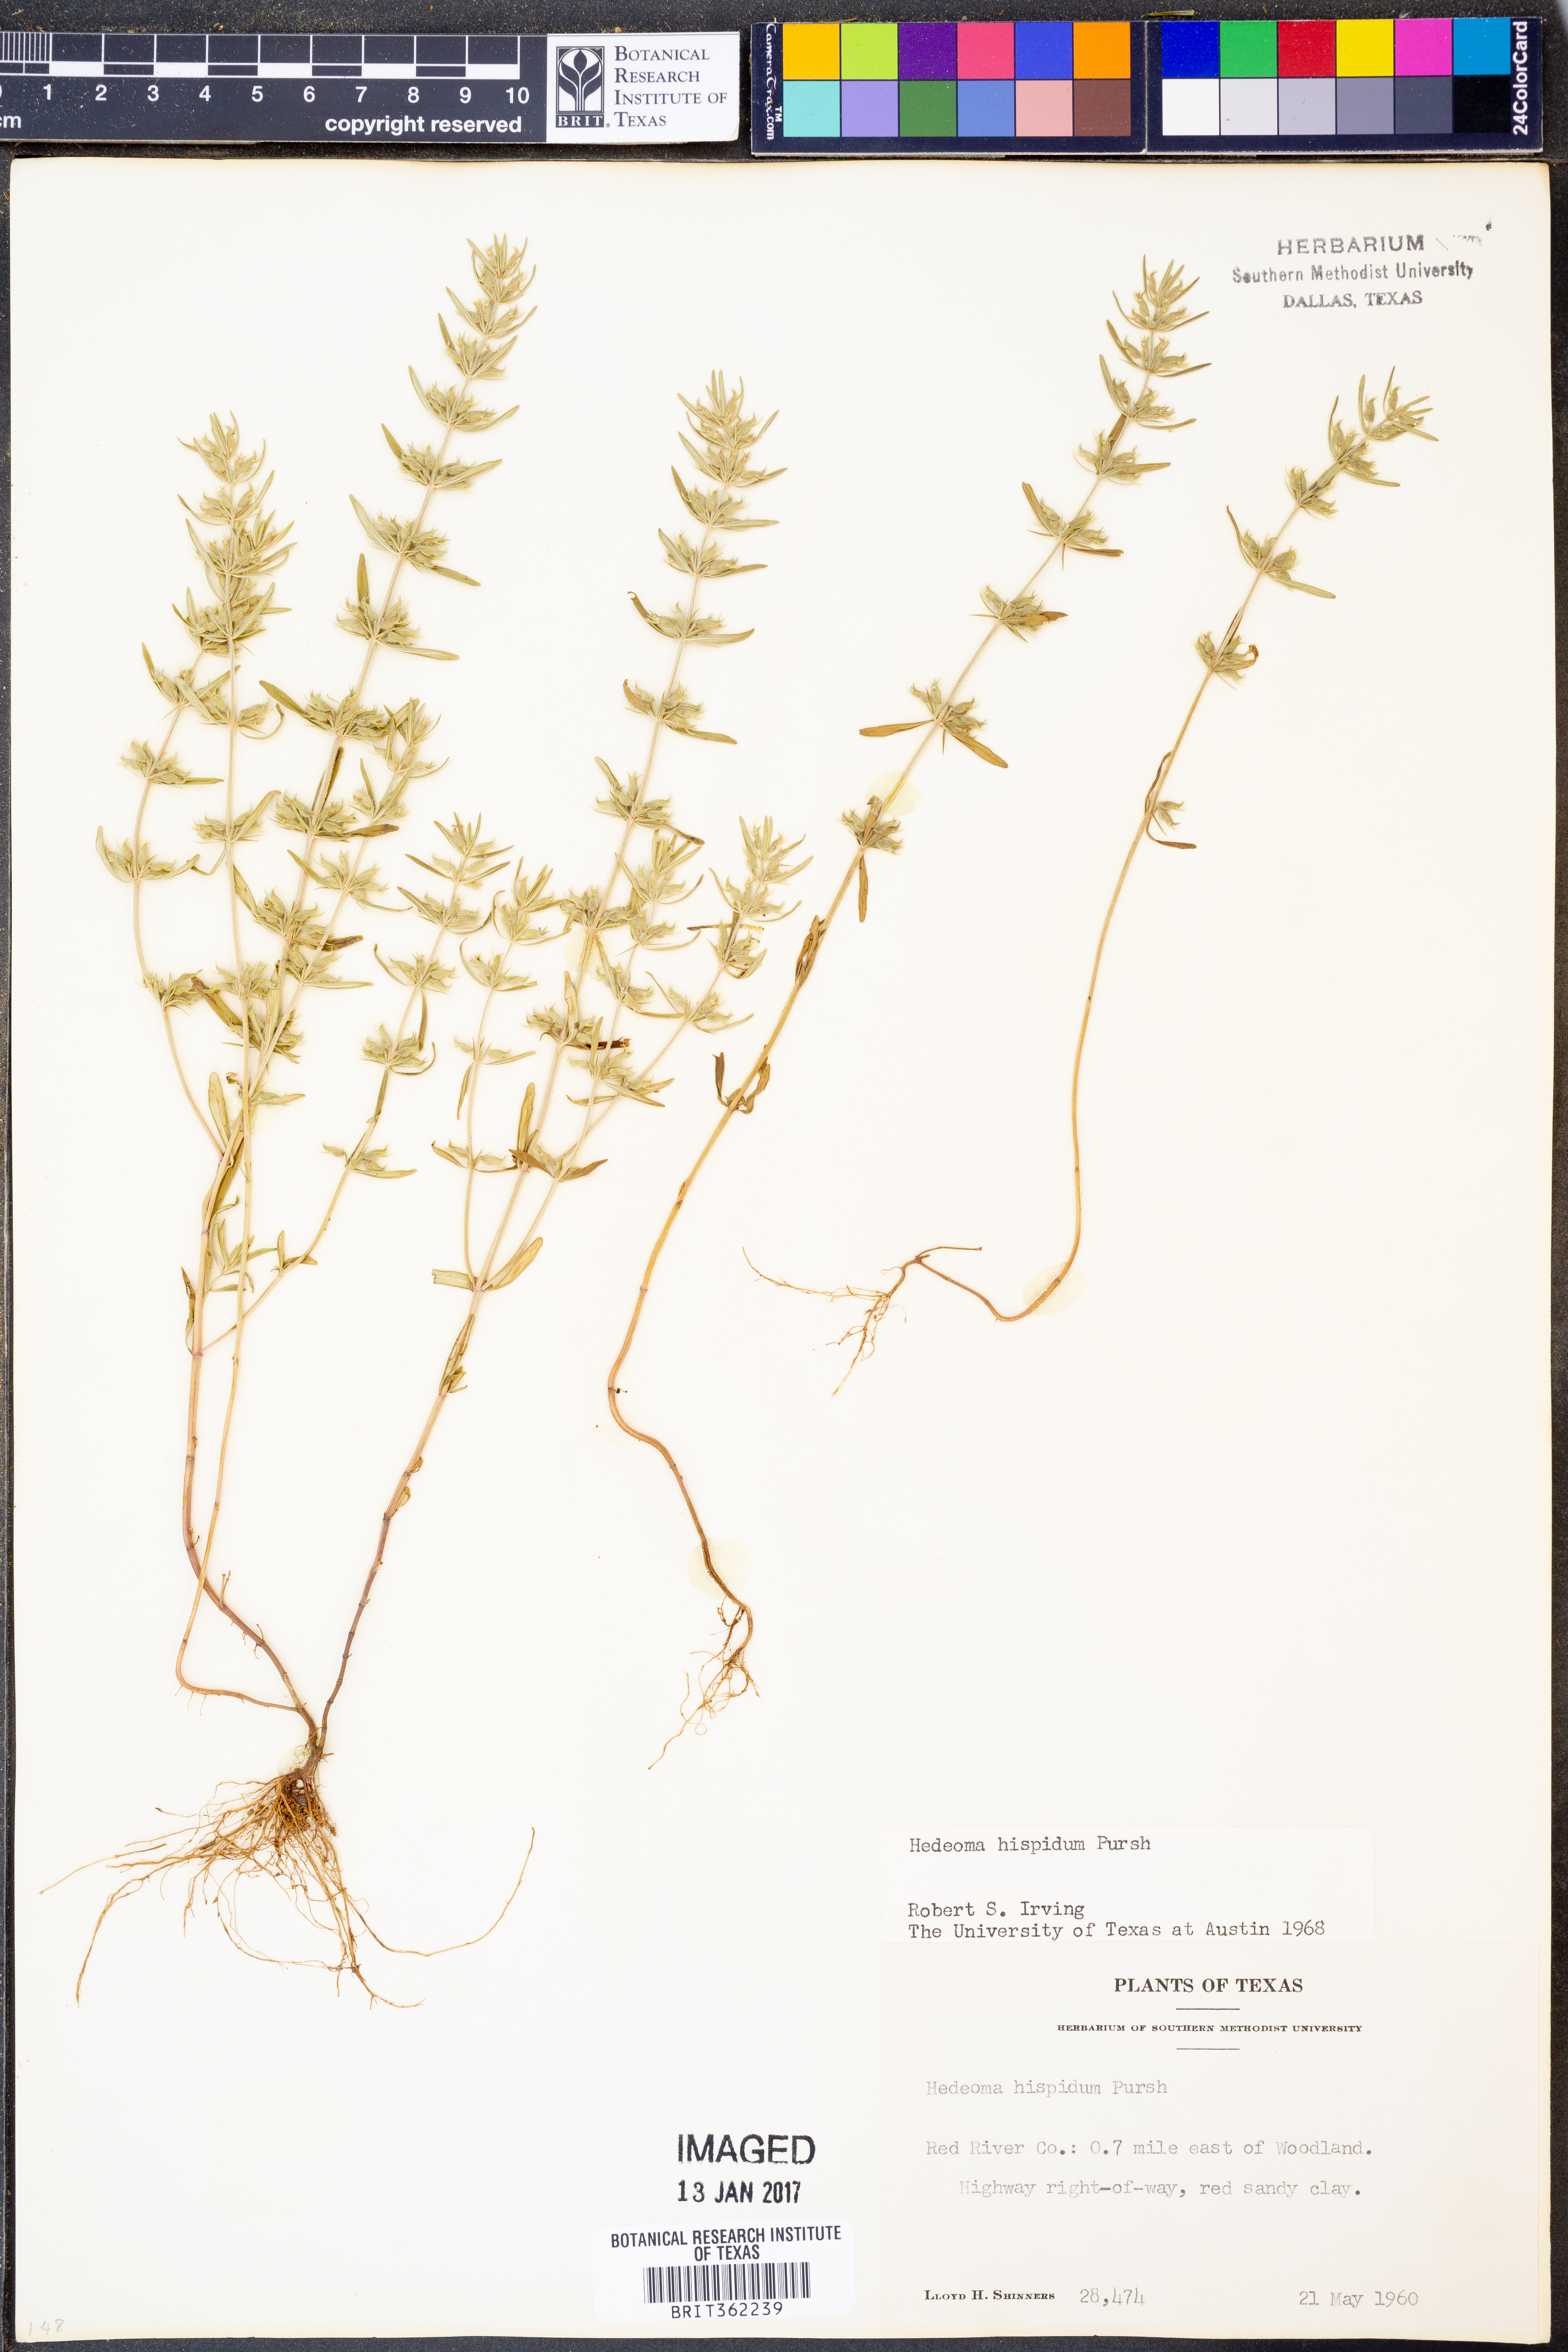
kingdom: Plantae
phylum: Tracheophyta
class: Magnoliopsida
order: Lamiales
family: Lamiaceae
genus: Hedeoma
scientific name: Hedeoma hispida
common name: Mock pennyroyal
